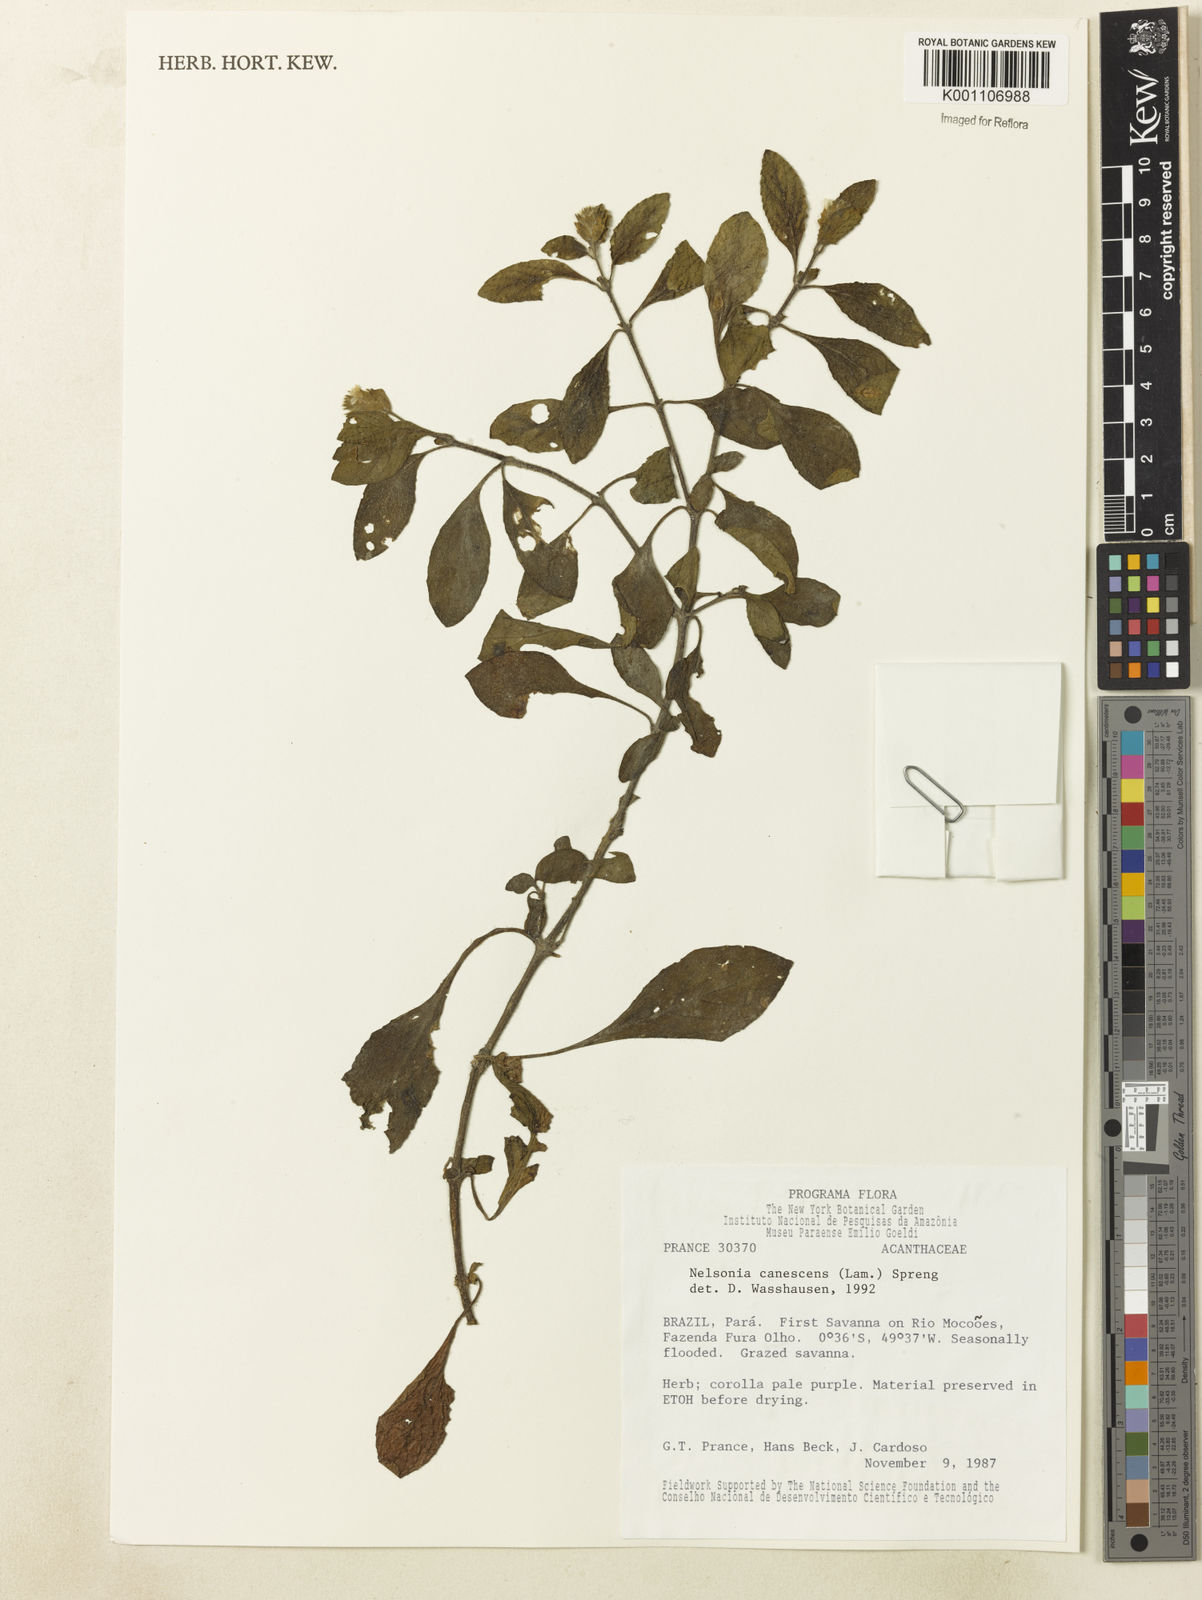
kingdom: Plantae
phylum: Tracheophyta
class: Magnoliopsida
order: Lamiales
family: Acanthaceae
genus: Nelsonia
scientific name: Nelsonia canescens
